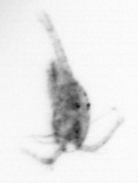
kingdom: Animalia
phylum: Arthropoda
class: Copepoda
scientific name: Copepoda
